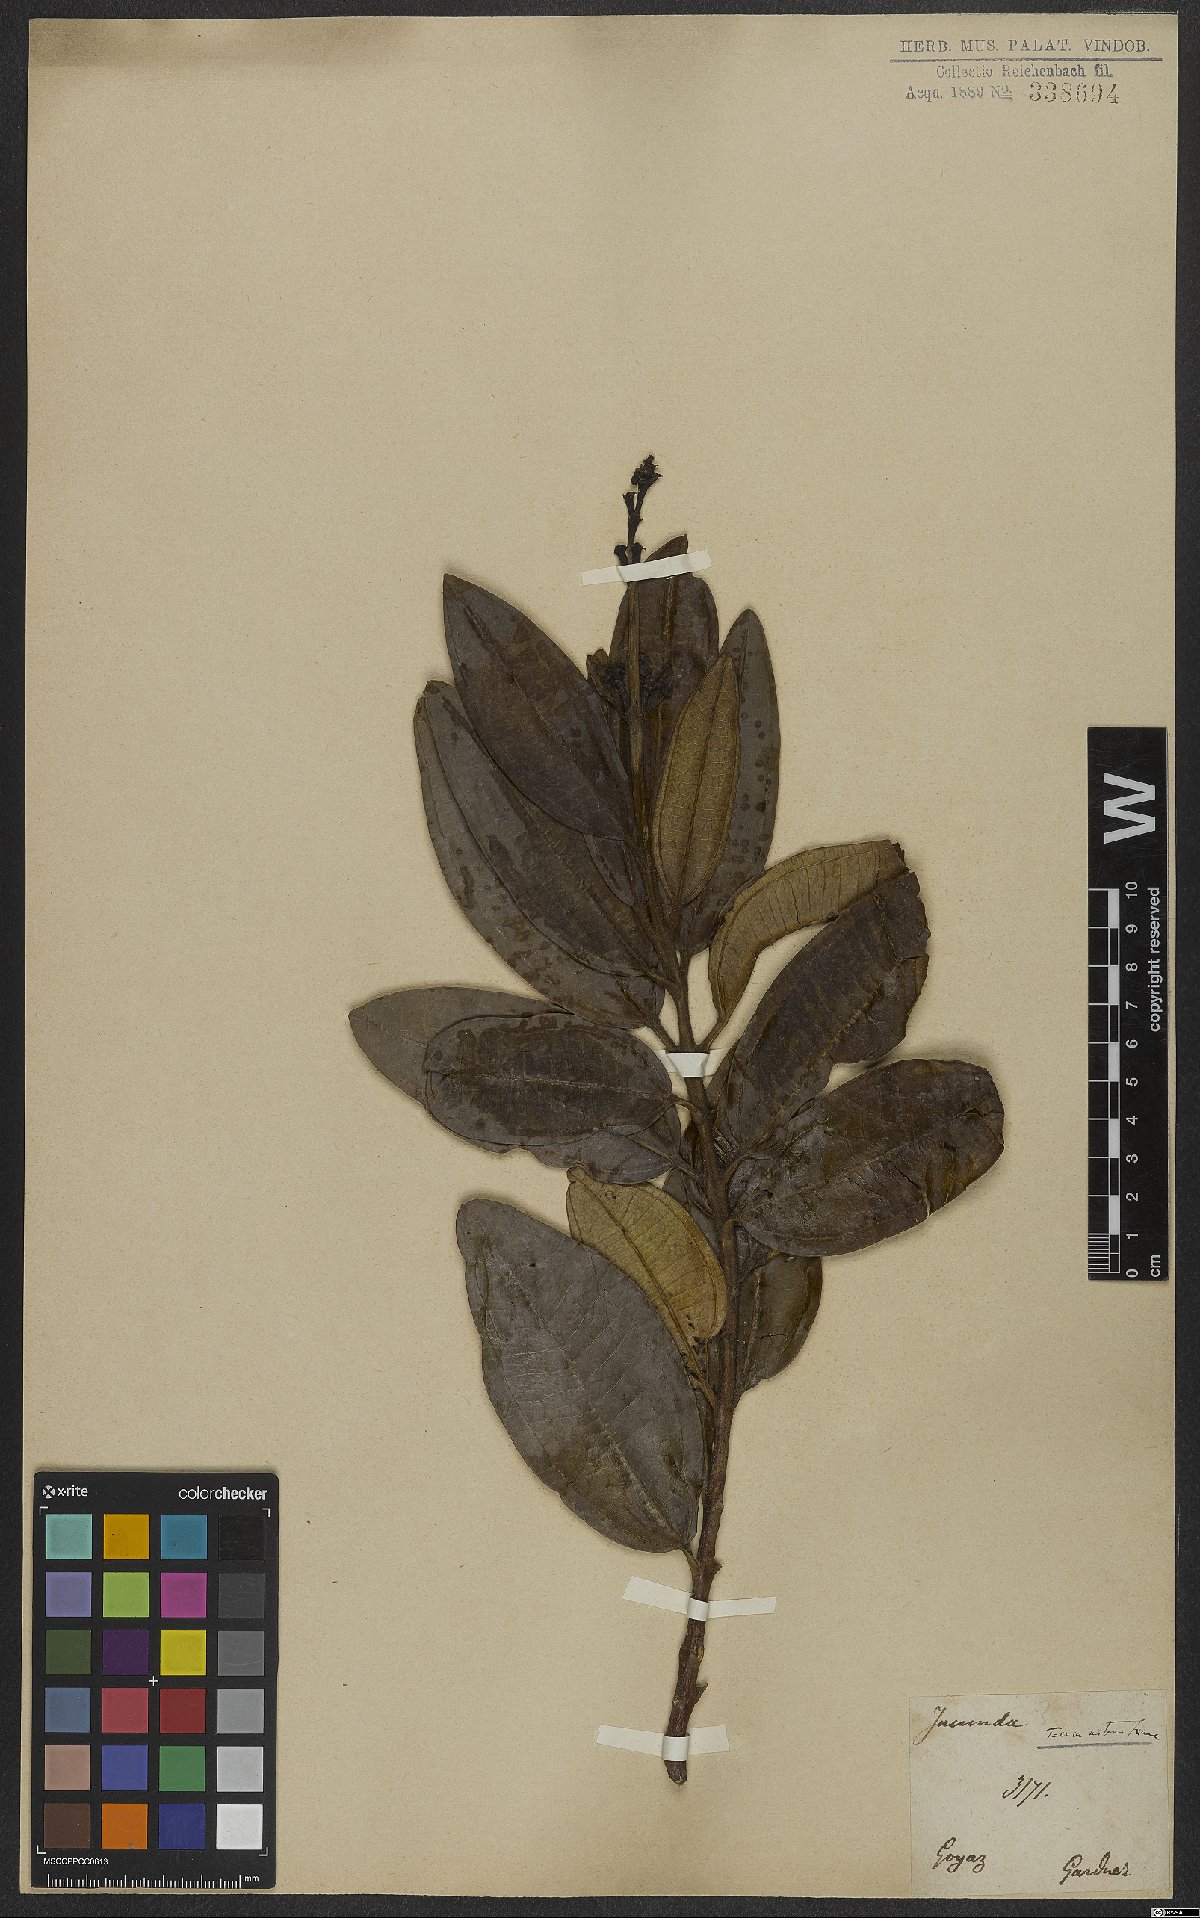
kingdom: Plantae
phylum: Tracheophyta
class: Magnoliopsida
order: Myrtales
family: Melastomataceae
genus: Miconia
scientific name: Miconia nitens
